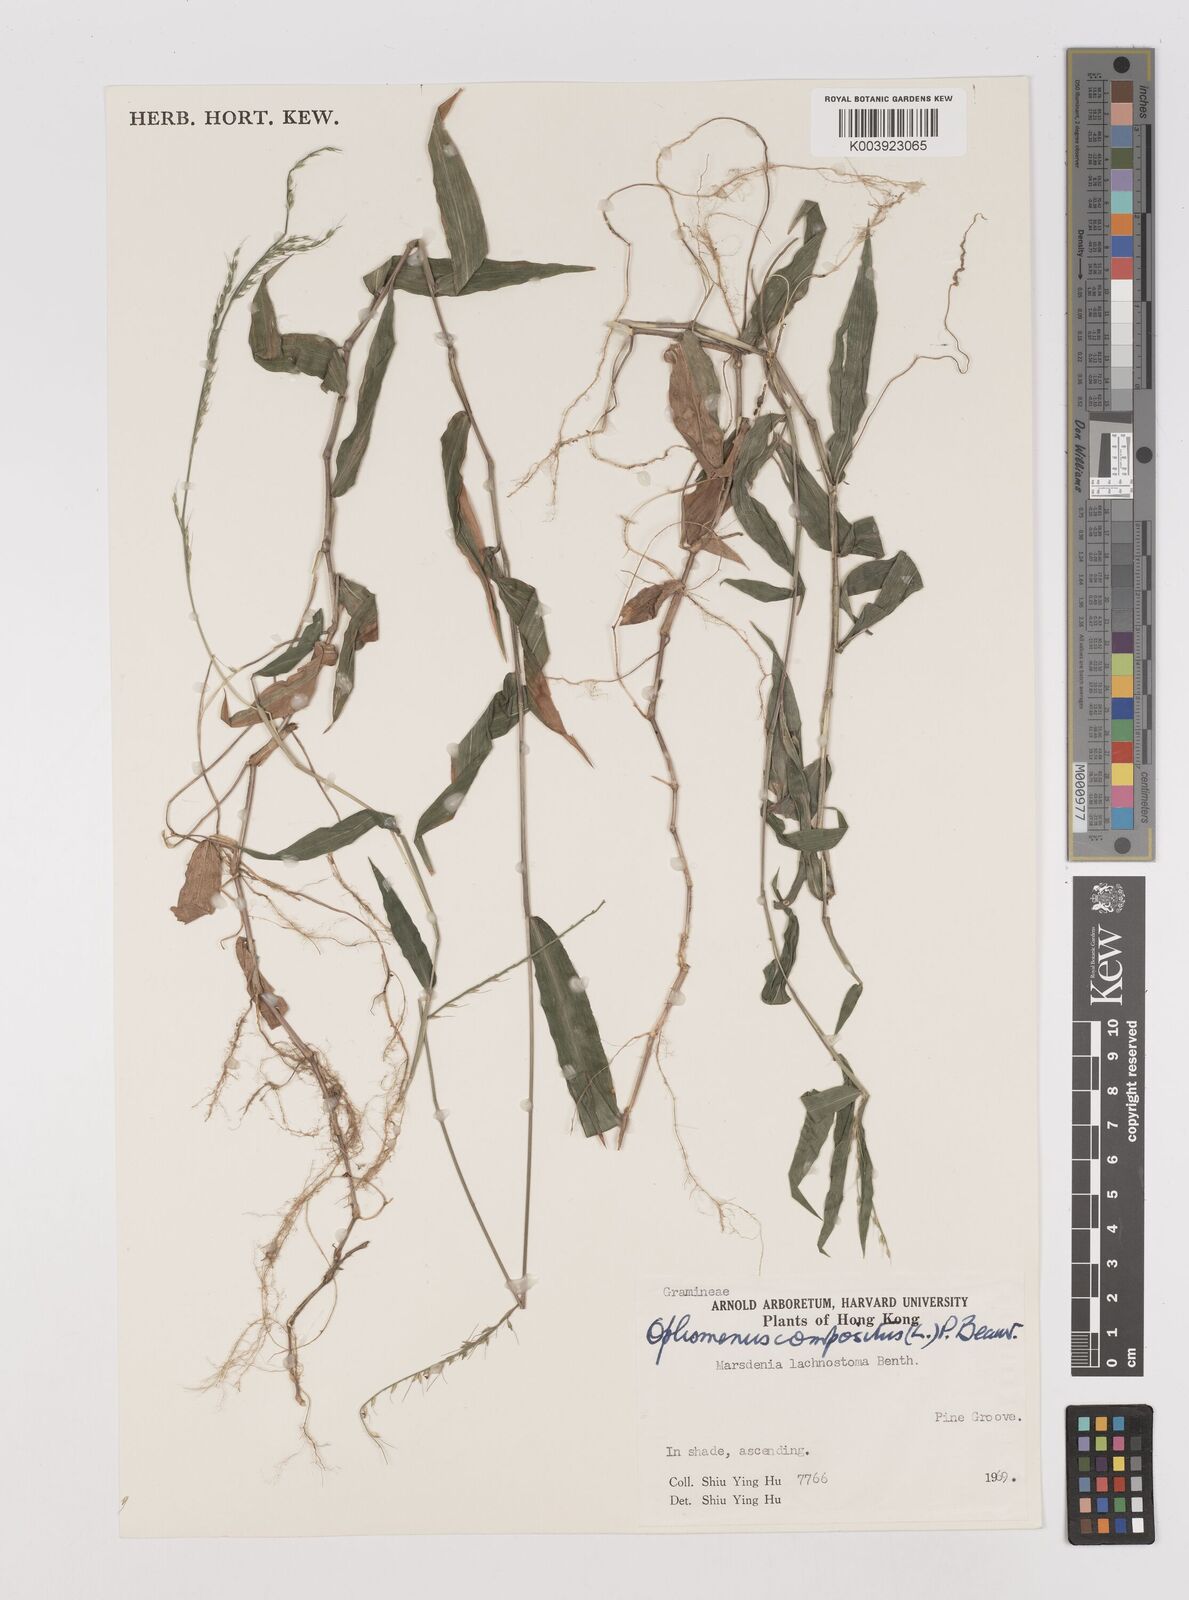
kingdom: Plantae
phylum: Tracheophyta
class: Liliopsida
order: Poales
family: Poaceae
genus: Oplismenus
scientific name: Oplismenus compositus
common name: Running mountain grass
